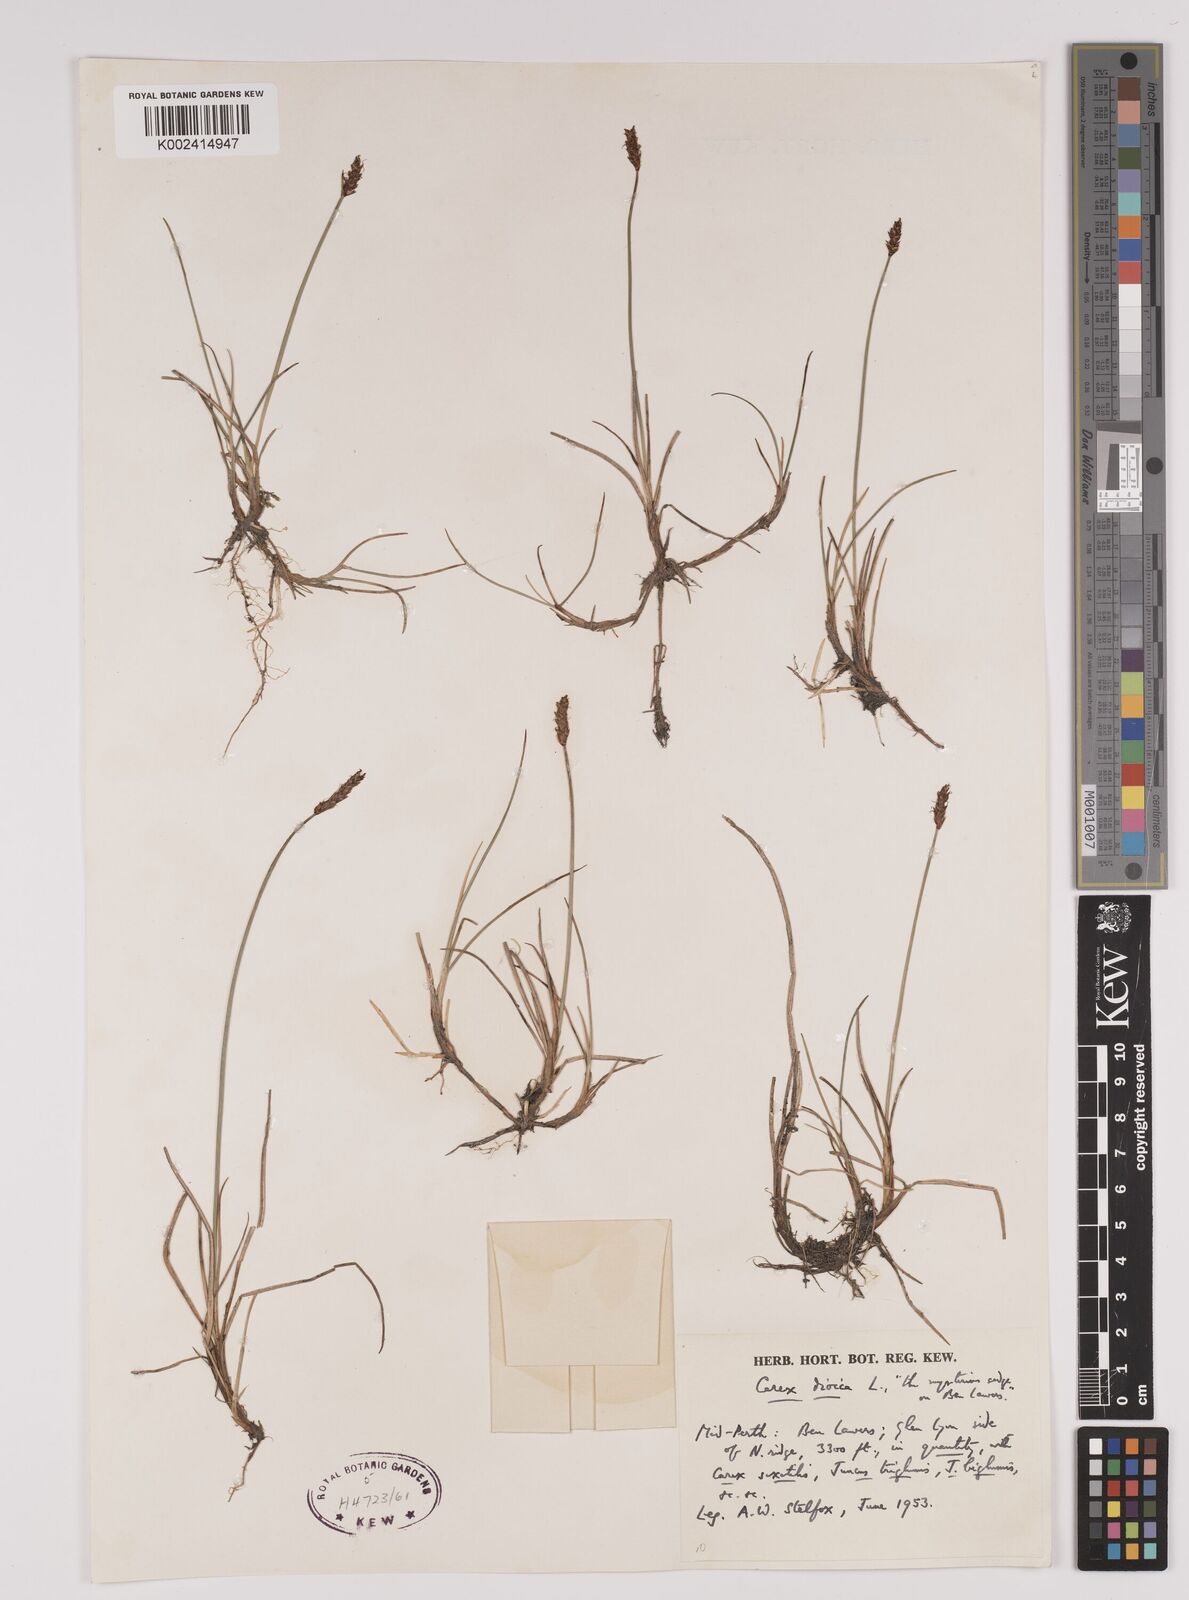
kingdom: Plantae
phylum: Tracheophyta
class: Liliopsida
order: Poales
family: Cyperaceae
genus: Carex
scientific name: Carex dioica
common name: Dioecious sedge
